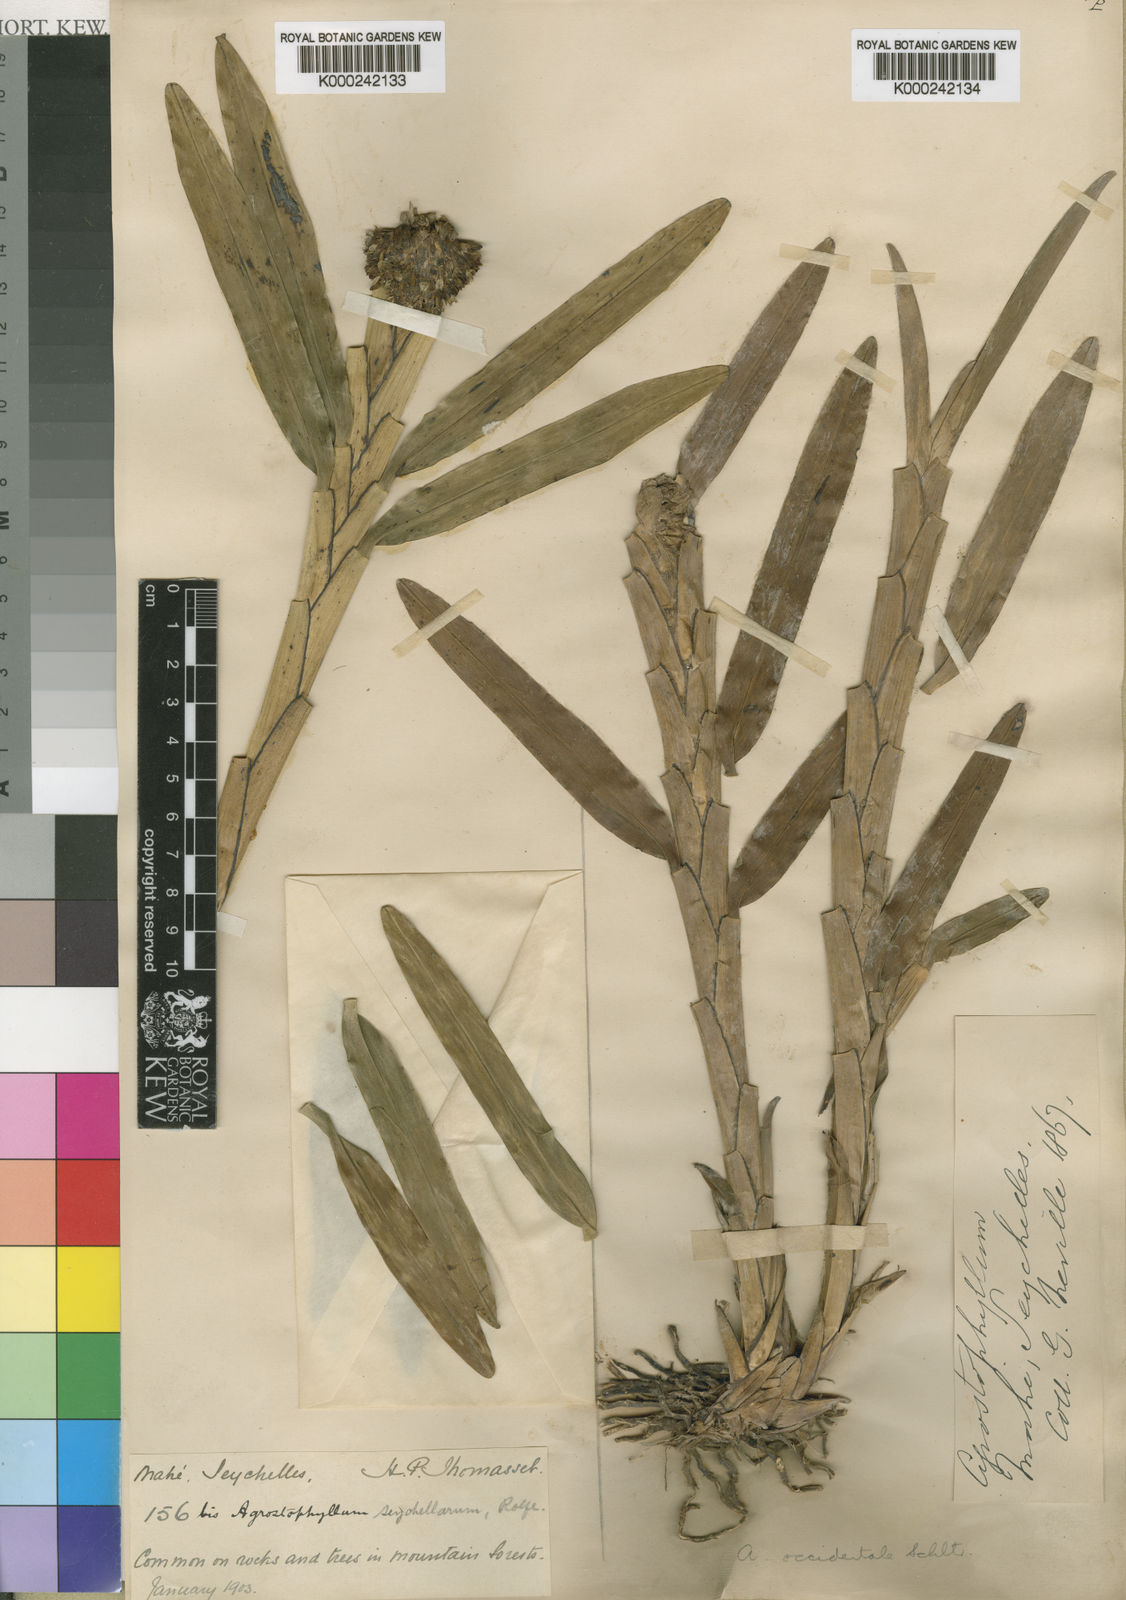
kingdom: Plantae
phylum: Tracheophyta
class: Liliopsida
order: Asparagales
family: Orchidaceae
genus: Agrostophyllum
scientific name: Agrostophyllum occidentale
